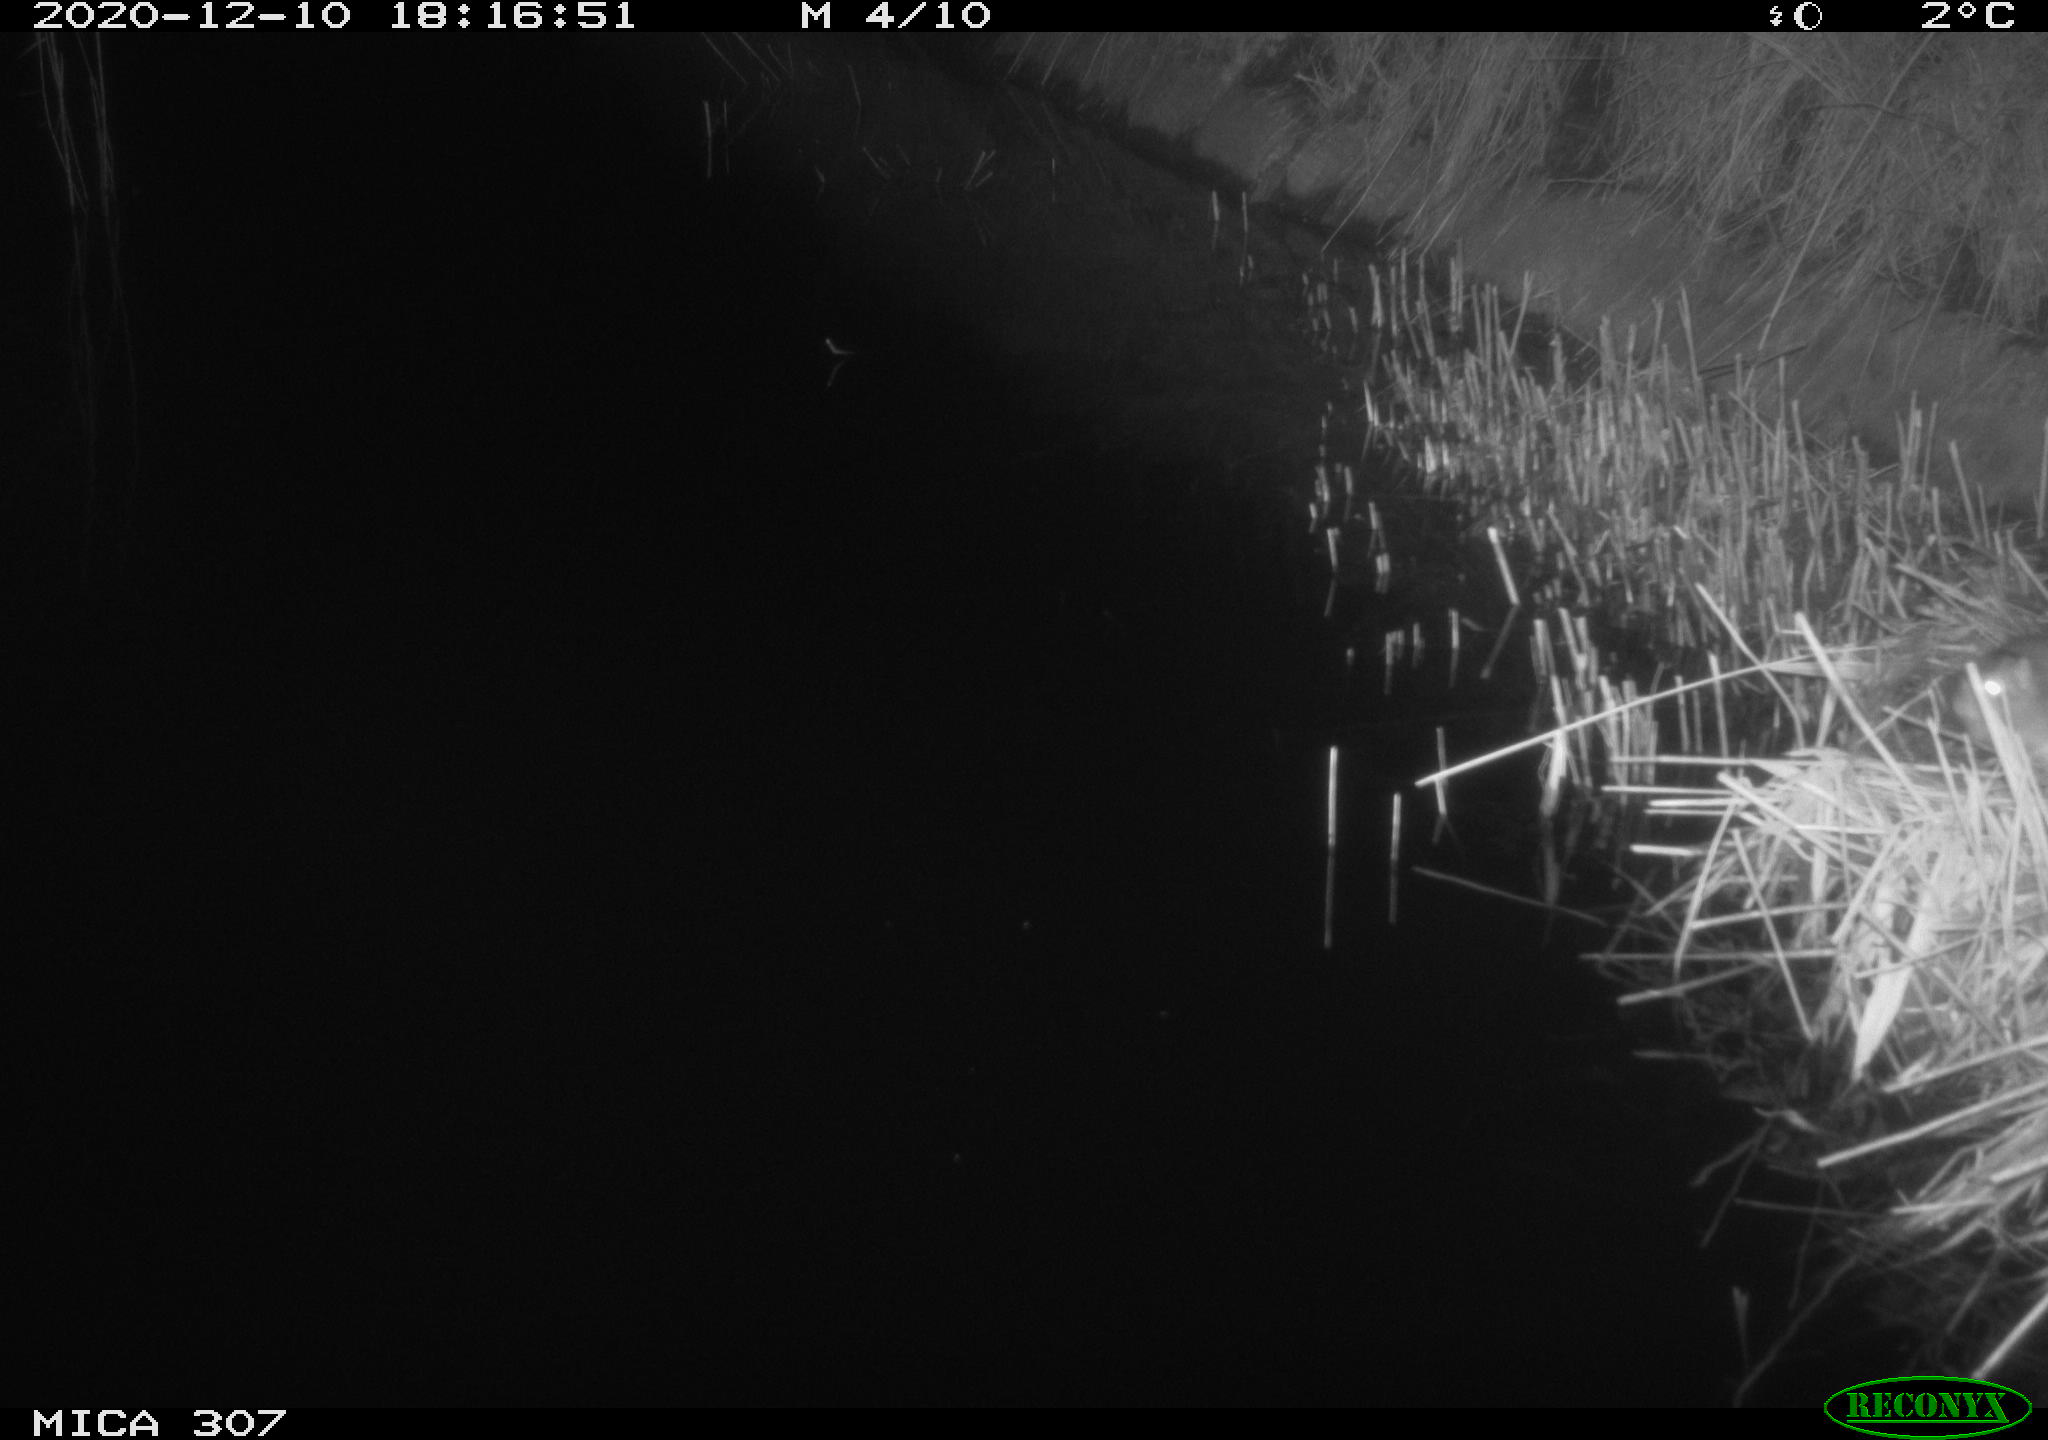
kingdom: Animalia
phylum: Chordata
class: Mammalia
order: Rodentia
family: Muridae
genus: Rattus
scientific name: Rattus norvegicus
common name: Brown rat
